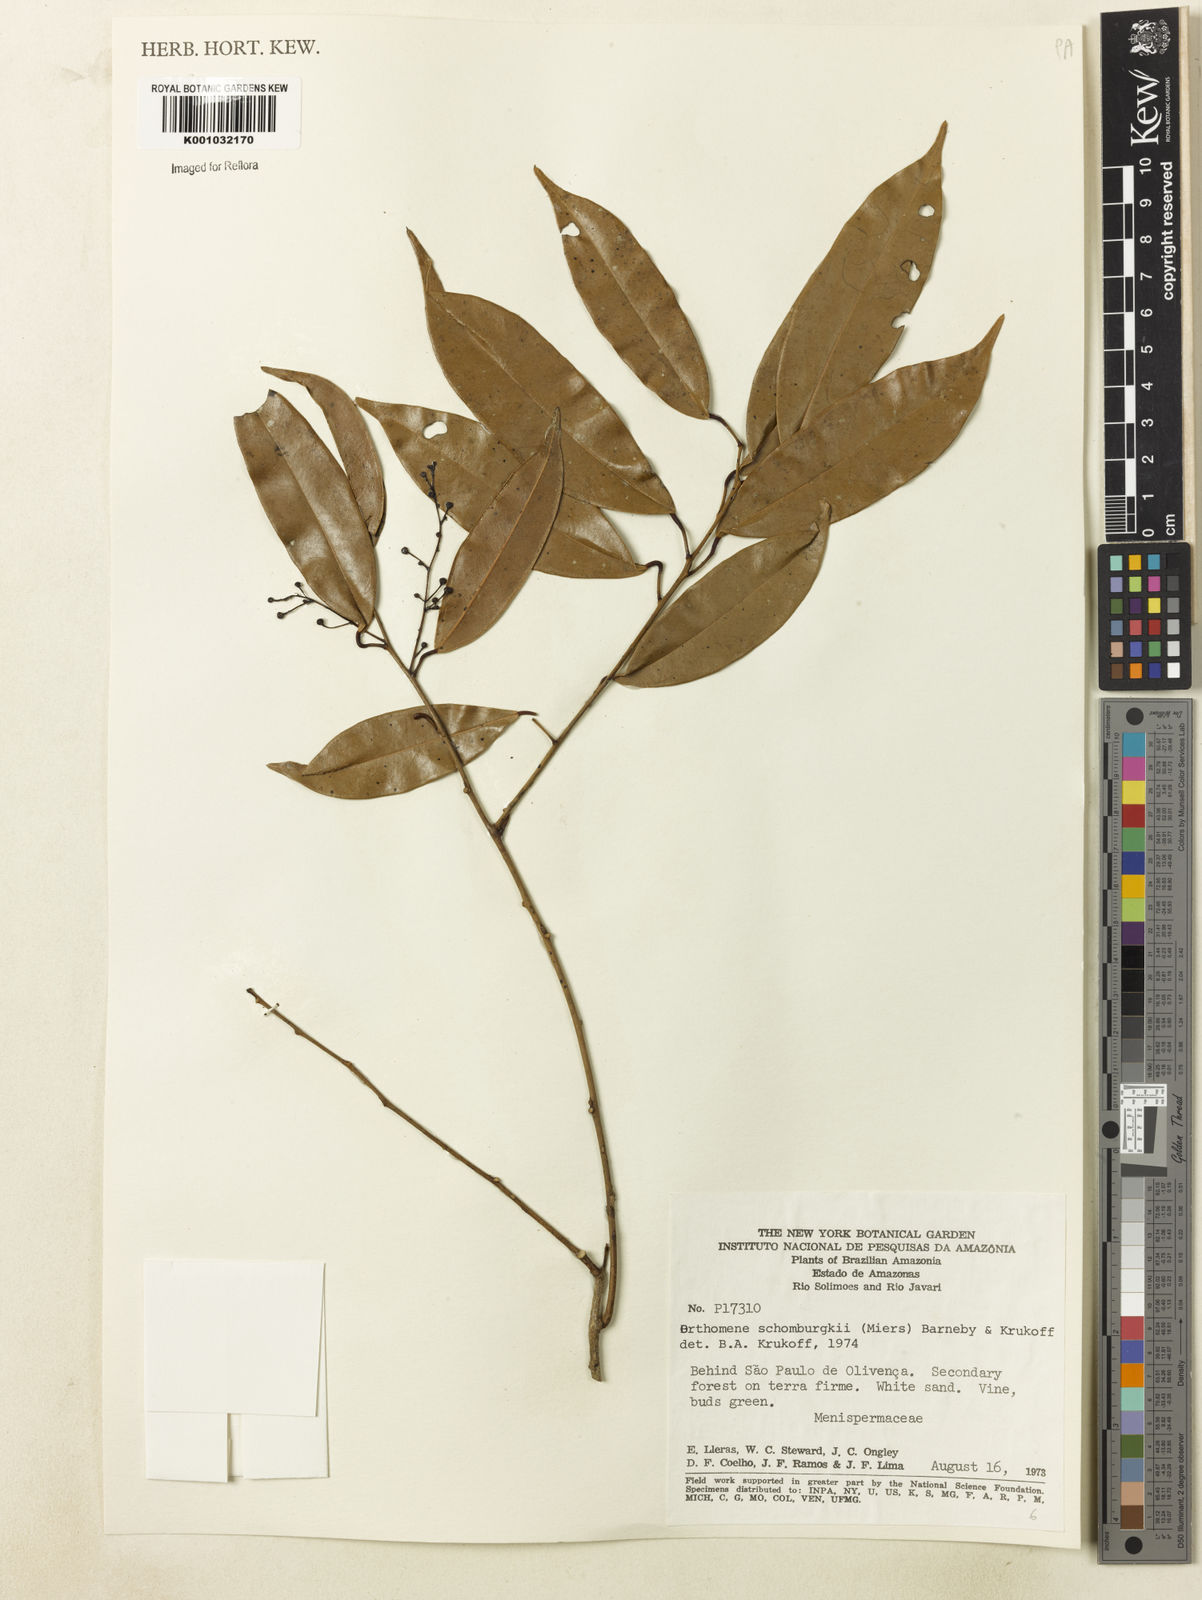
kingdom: Plantae
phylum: Tracheophyta
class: Magnoliopsida
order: Ranunculales
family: Menispermaceae
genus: Orthomene
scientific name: Orthomene schomburgkii
